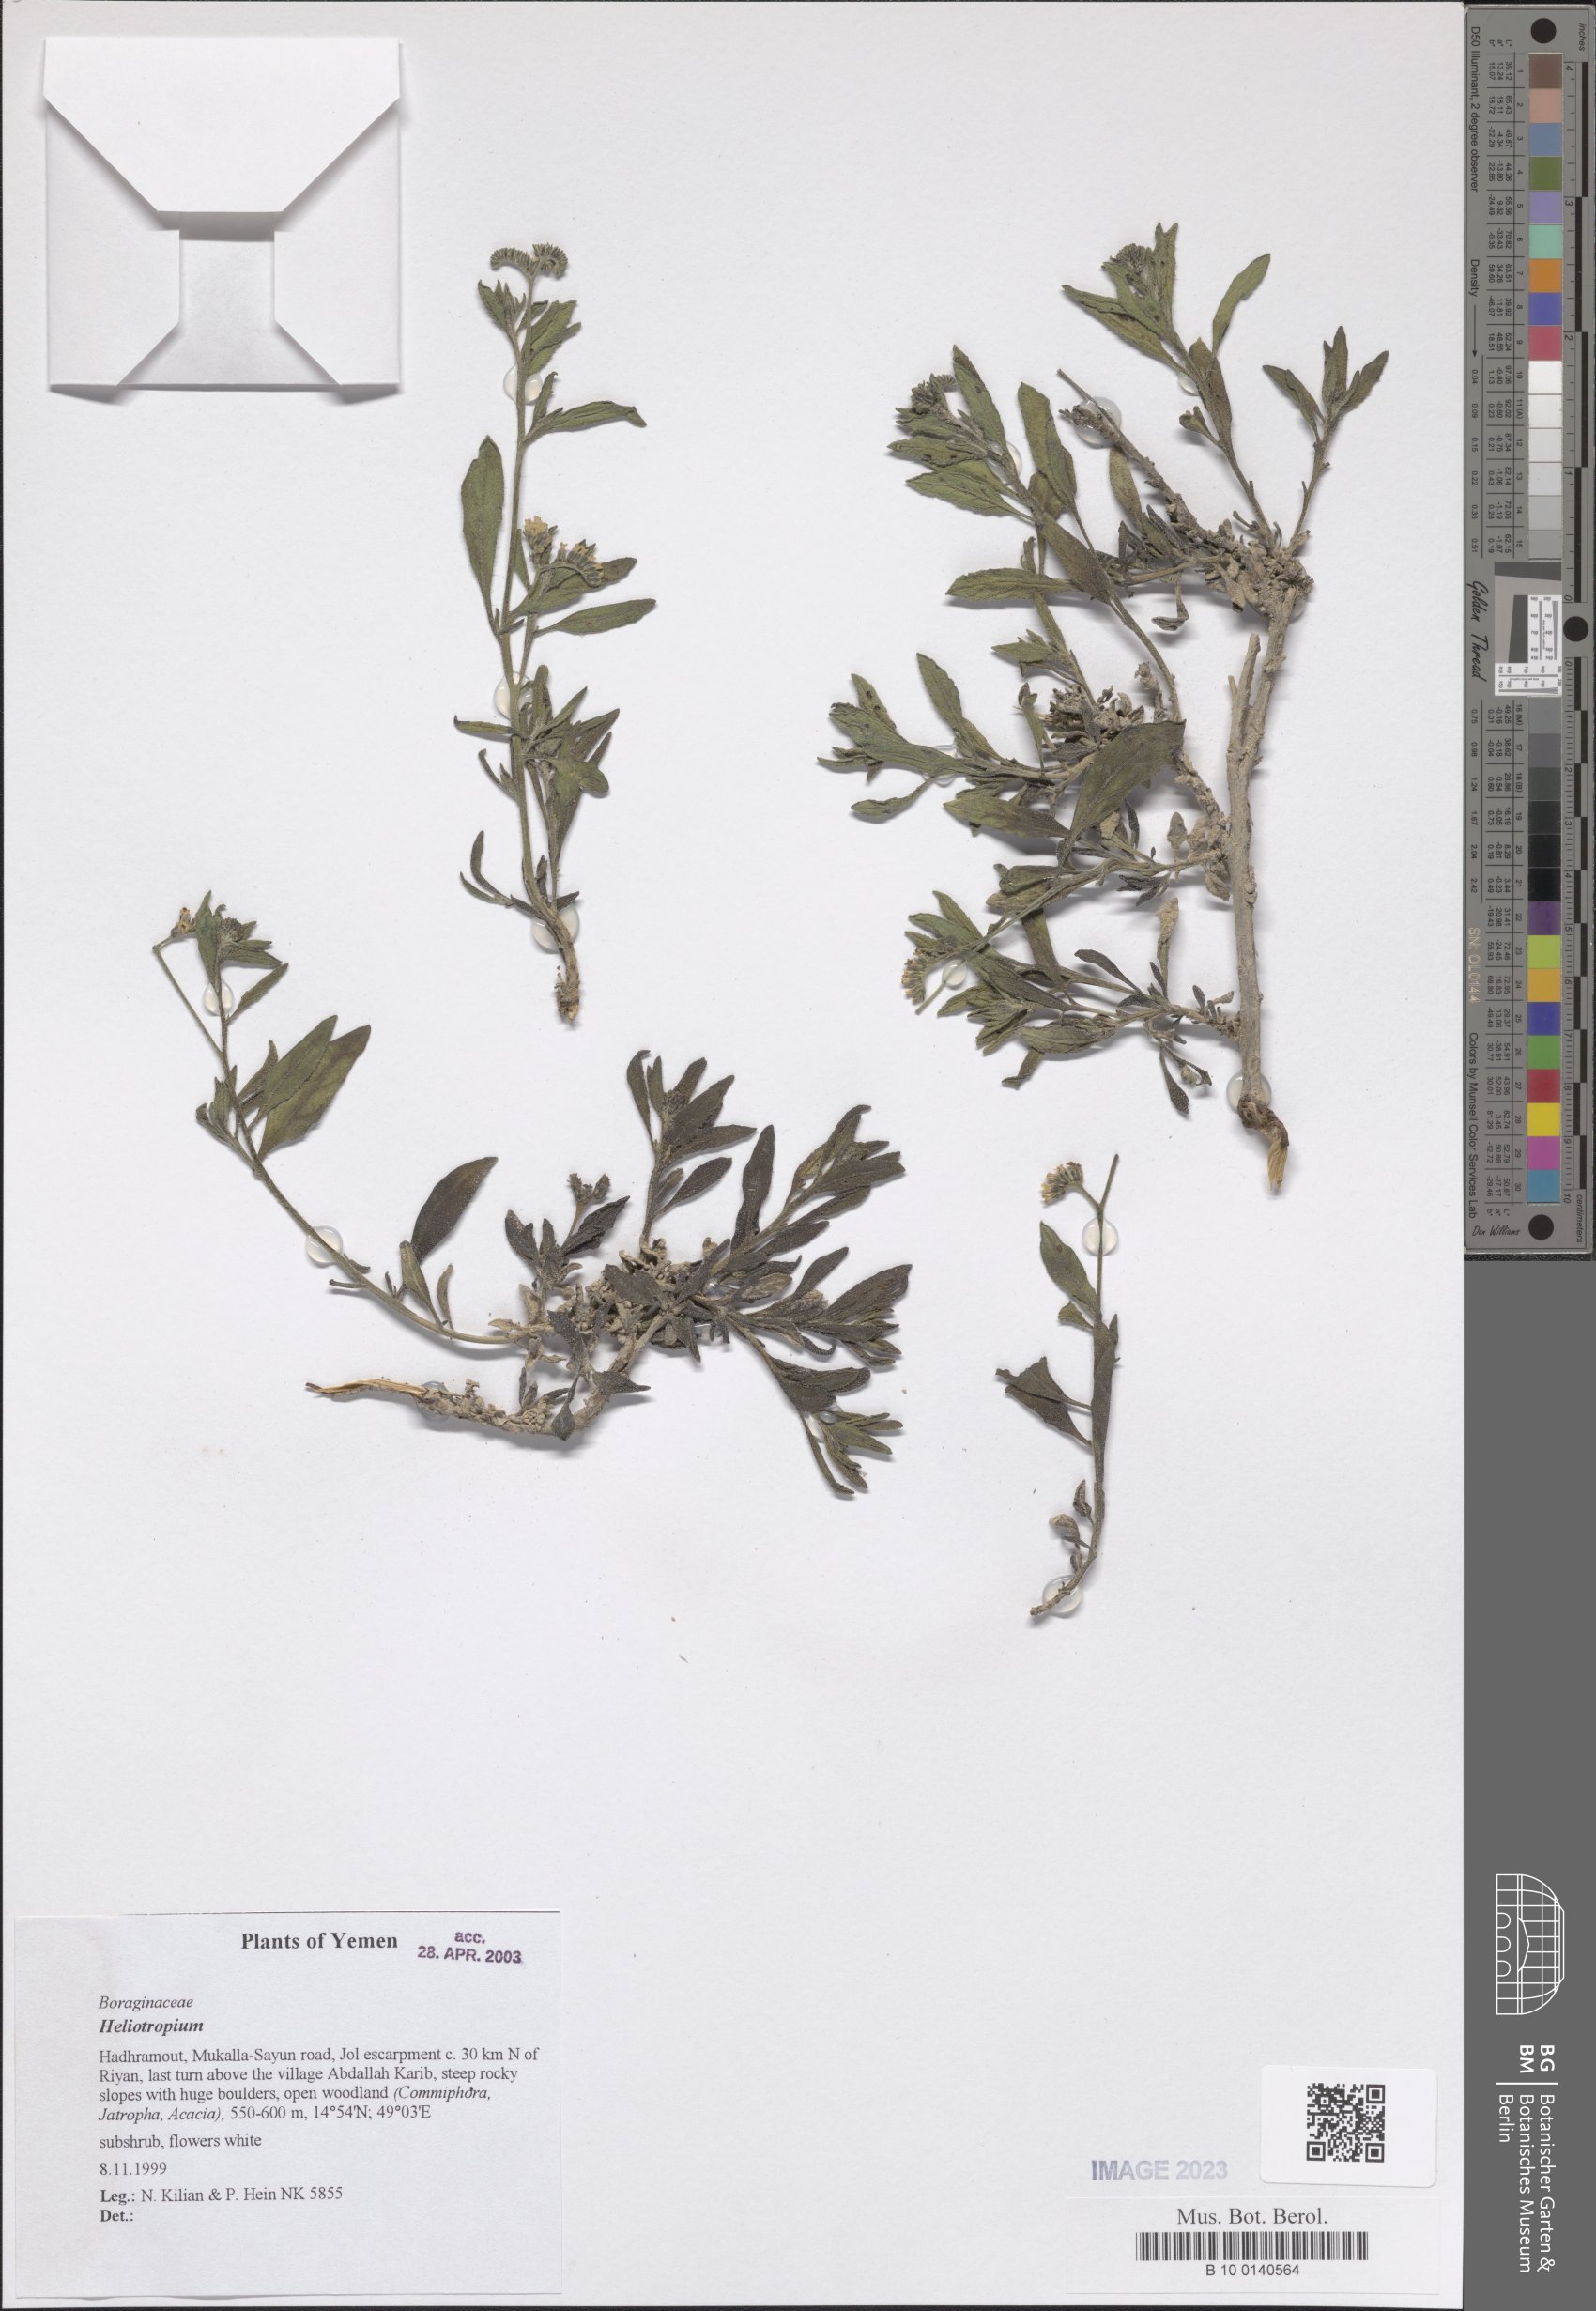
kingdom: Plantae
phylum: Tracheophyta
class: Magnoliopsida
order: Boraginales
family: Heliotropiaceae
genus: Heliotropium
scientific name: Heliotropium
